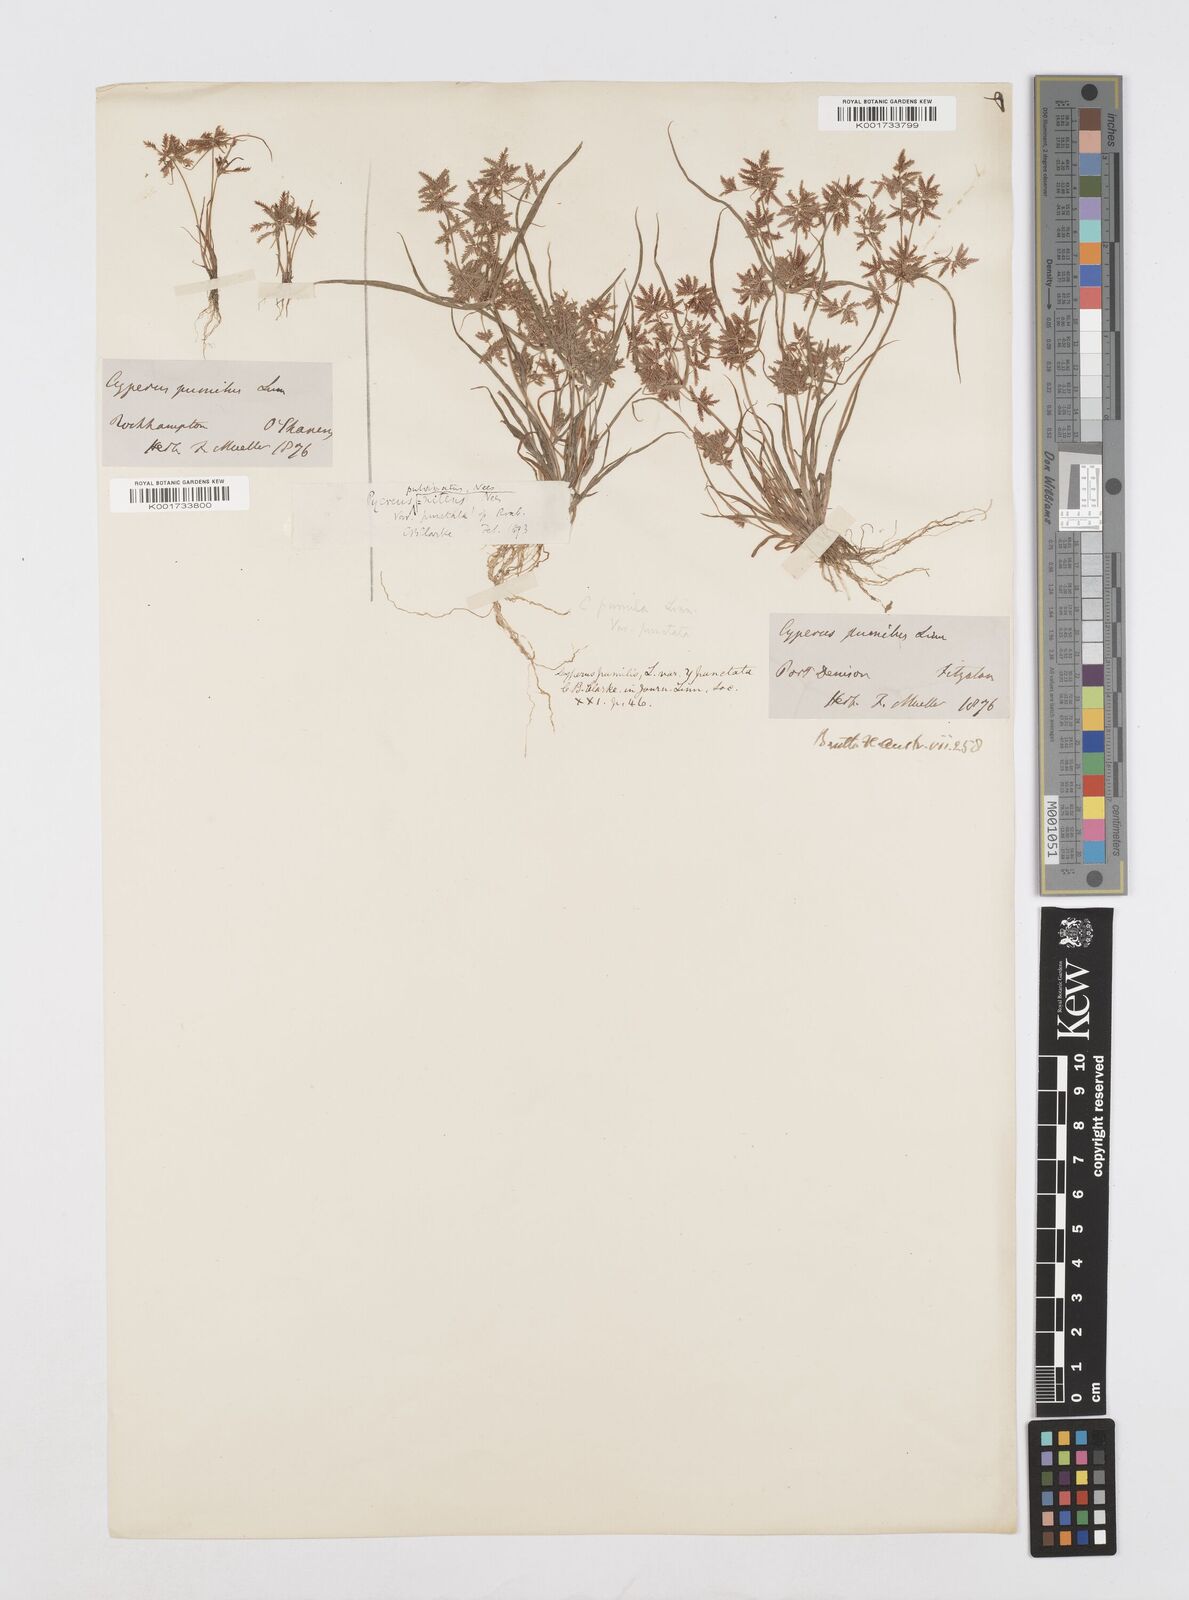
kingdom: Plantae
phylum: Tracheophyta
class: Liliopsida
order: Poales
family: Cyperaceae
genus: Cyperus
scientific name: Cyperus nervulosus
